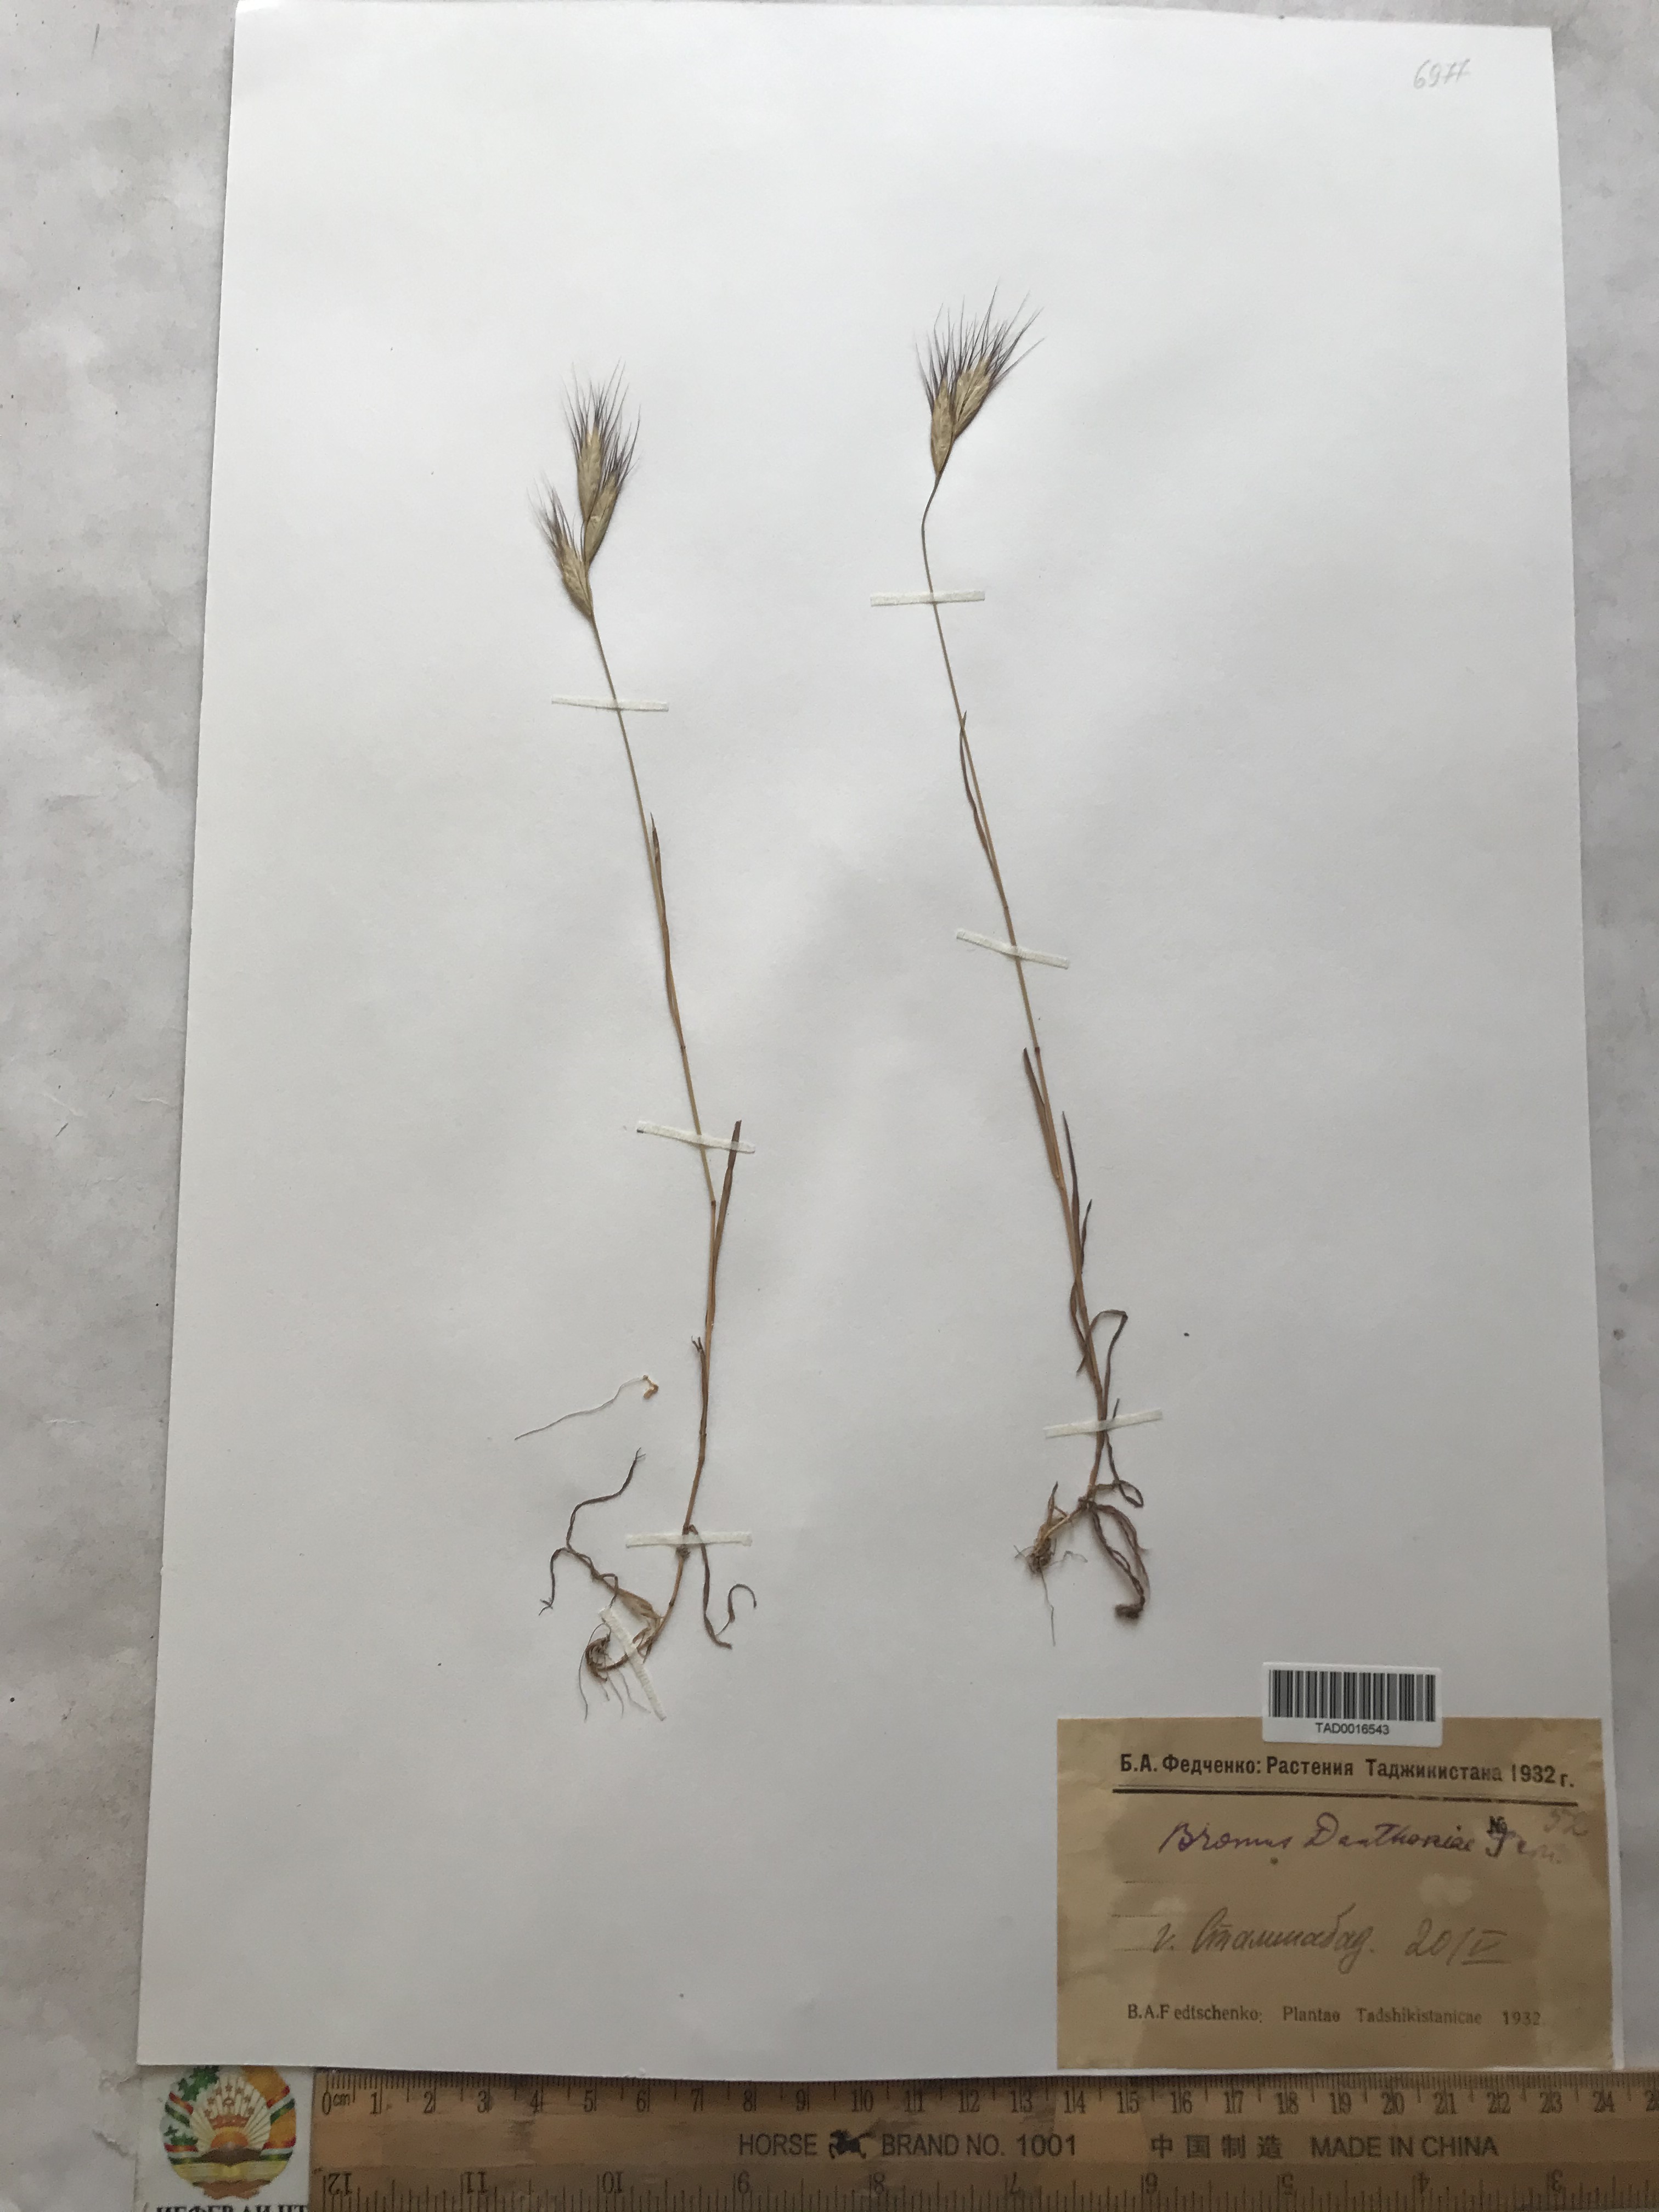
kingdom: Plantae
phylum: Tracheophyta
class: Liliopsida
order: Poales
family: Poaceae
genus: Bromus
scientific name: Bromus danthoniae
